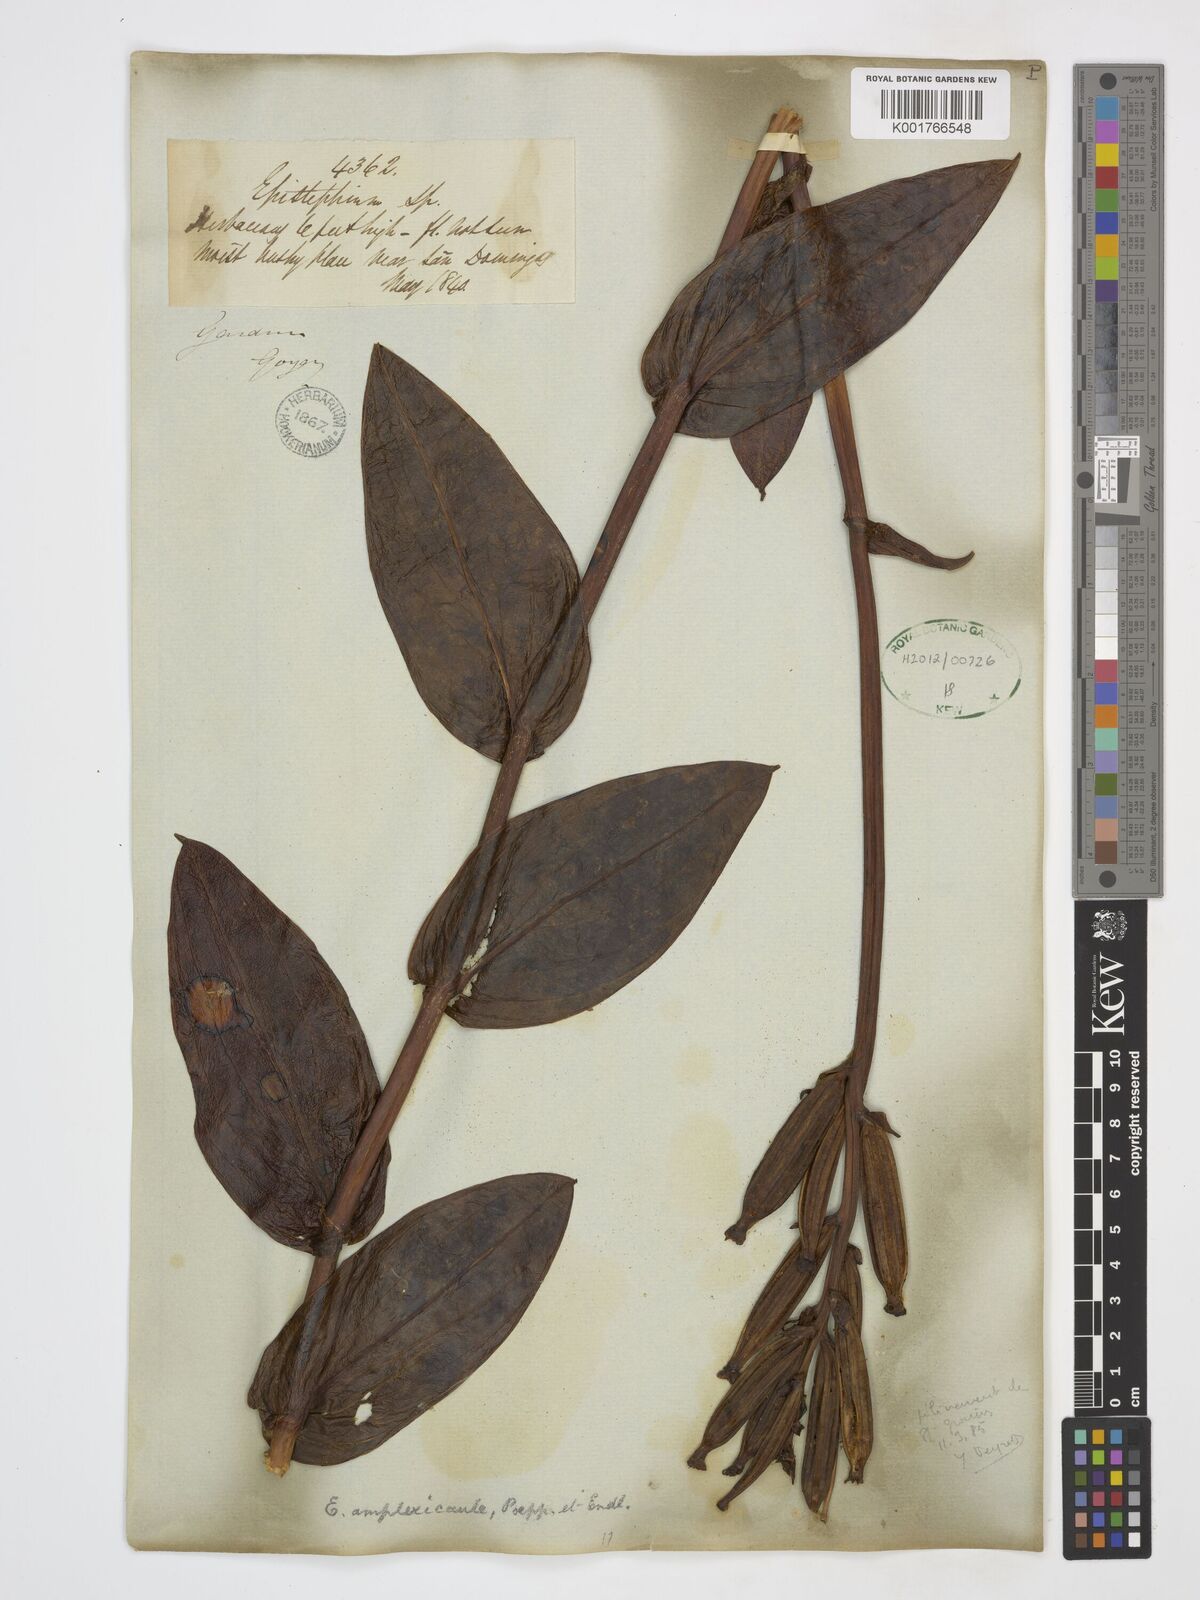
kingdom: Plantae
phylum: Tracheophyta
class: Liliopsida
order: Asparagales
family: Orchidaceae
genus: Epistephium
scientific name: Epistephium amplexicaule
